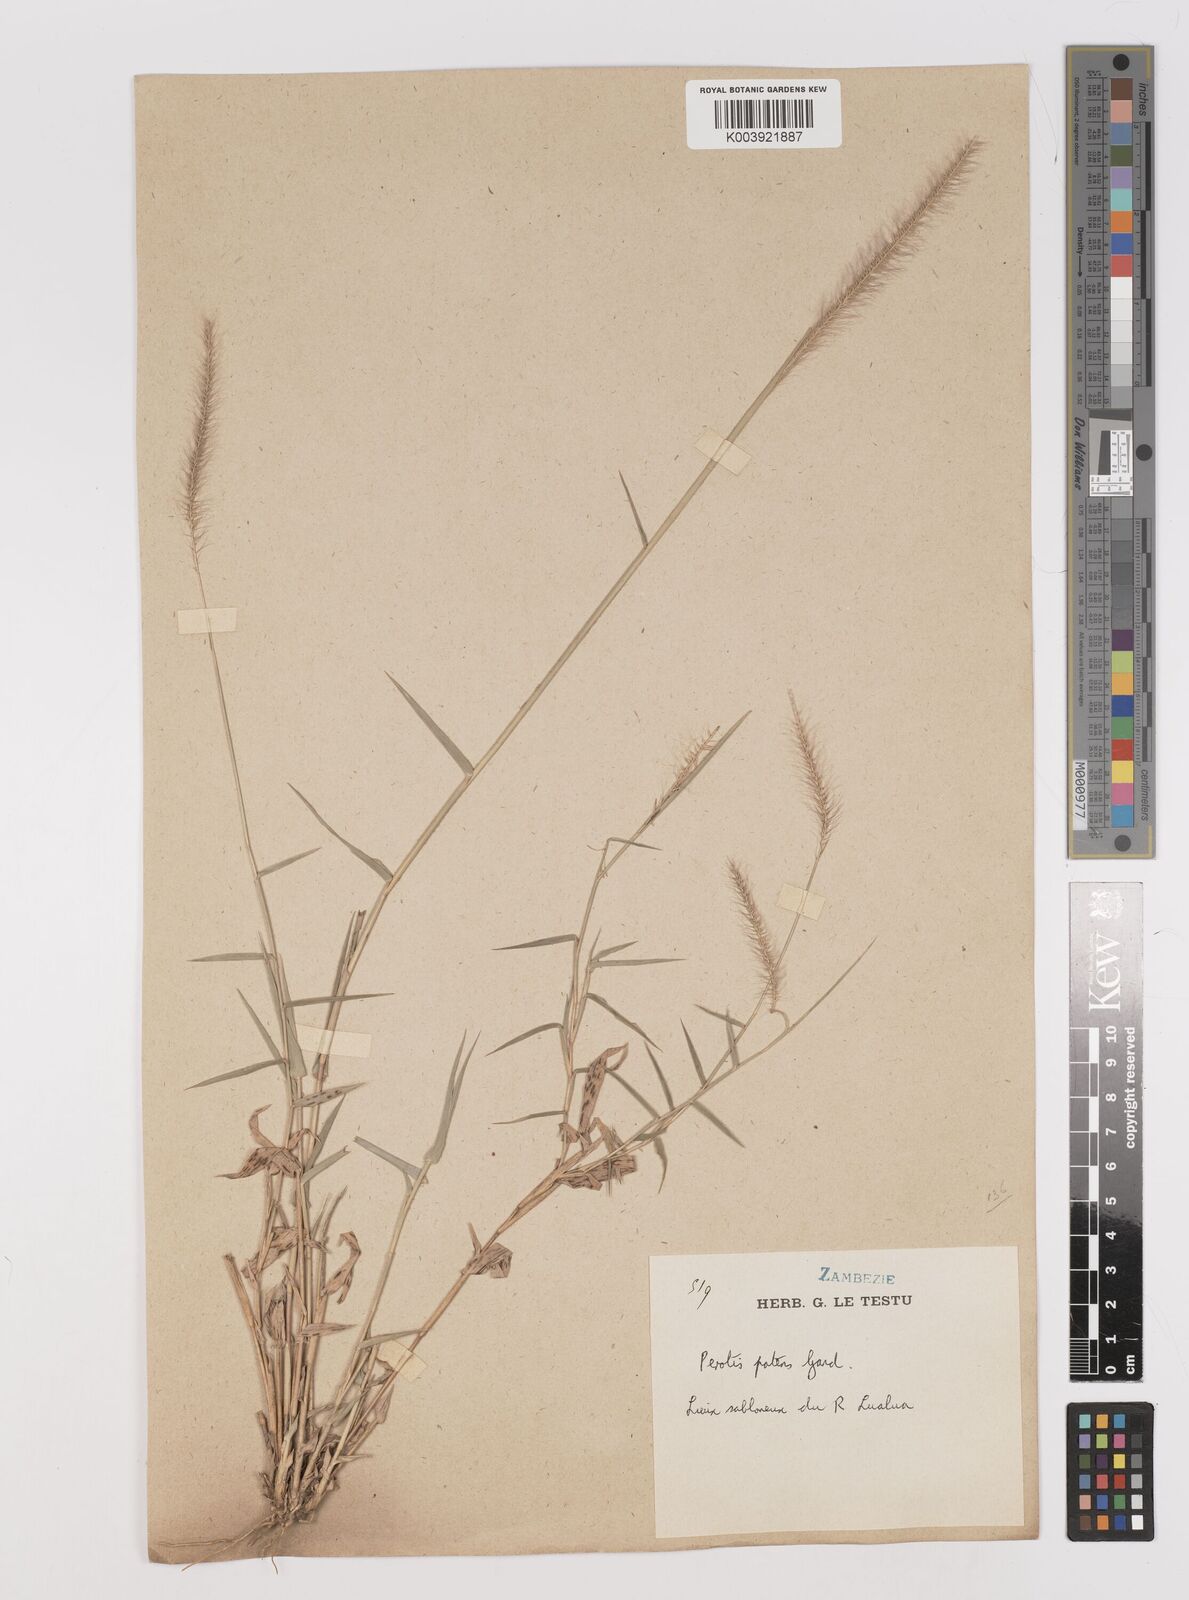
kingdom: Plantae
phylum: Tracheophyta
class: Liliopsida
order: Poales
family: Poaceae
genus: Perotis
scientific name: Perotis patens
